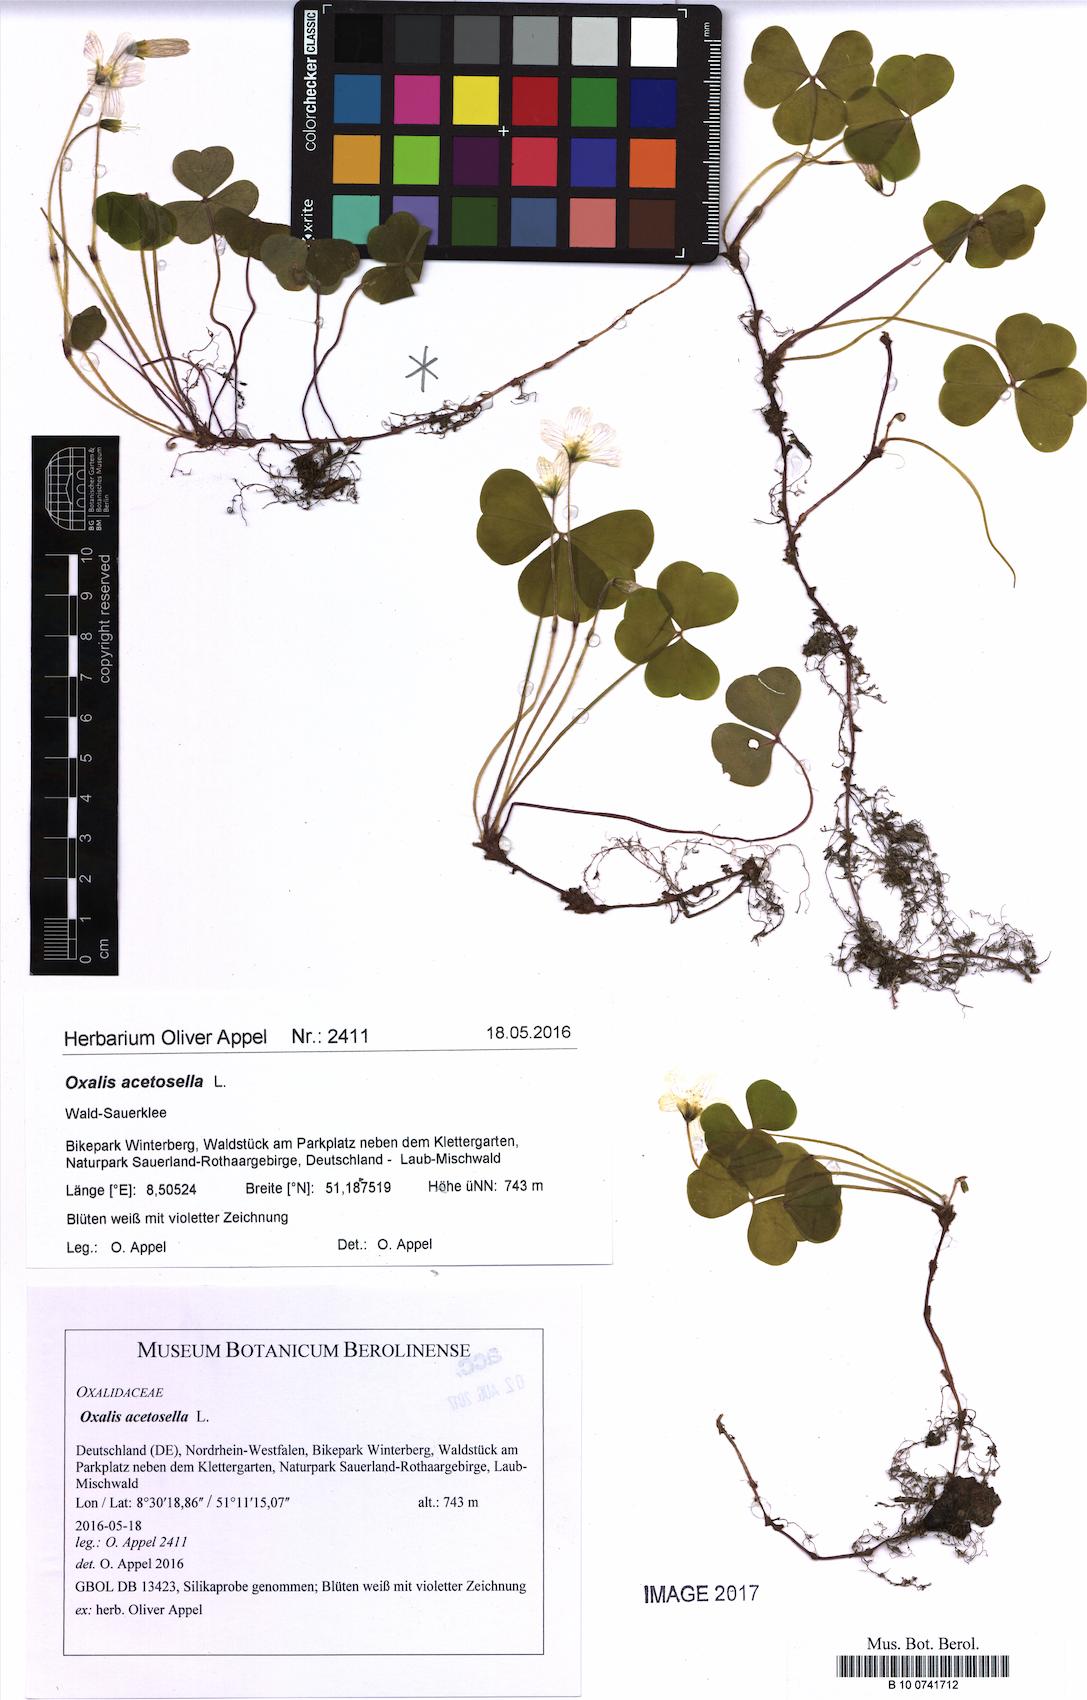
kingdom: Plantae
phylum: Tracheophyta
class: Magnoliopsida
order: Oxalidales
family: Oxalidaceae
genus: Oxalis
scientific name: Oxalis acetosella
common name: Wood-sorrel
